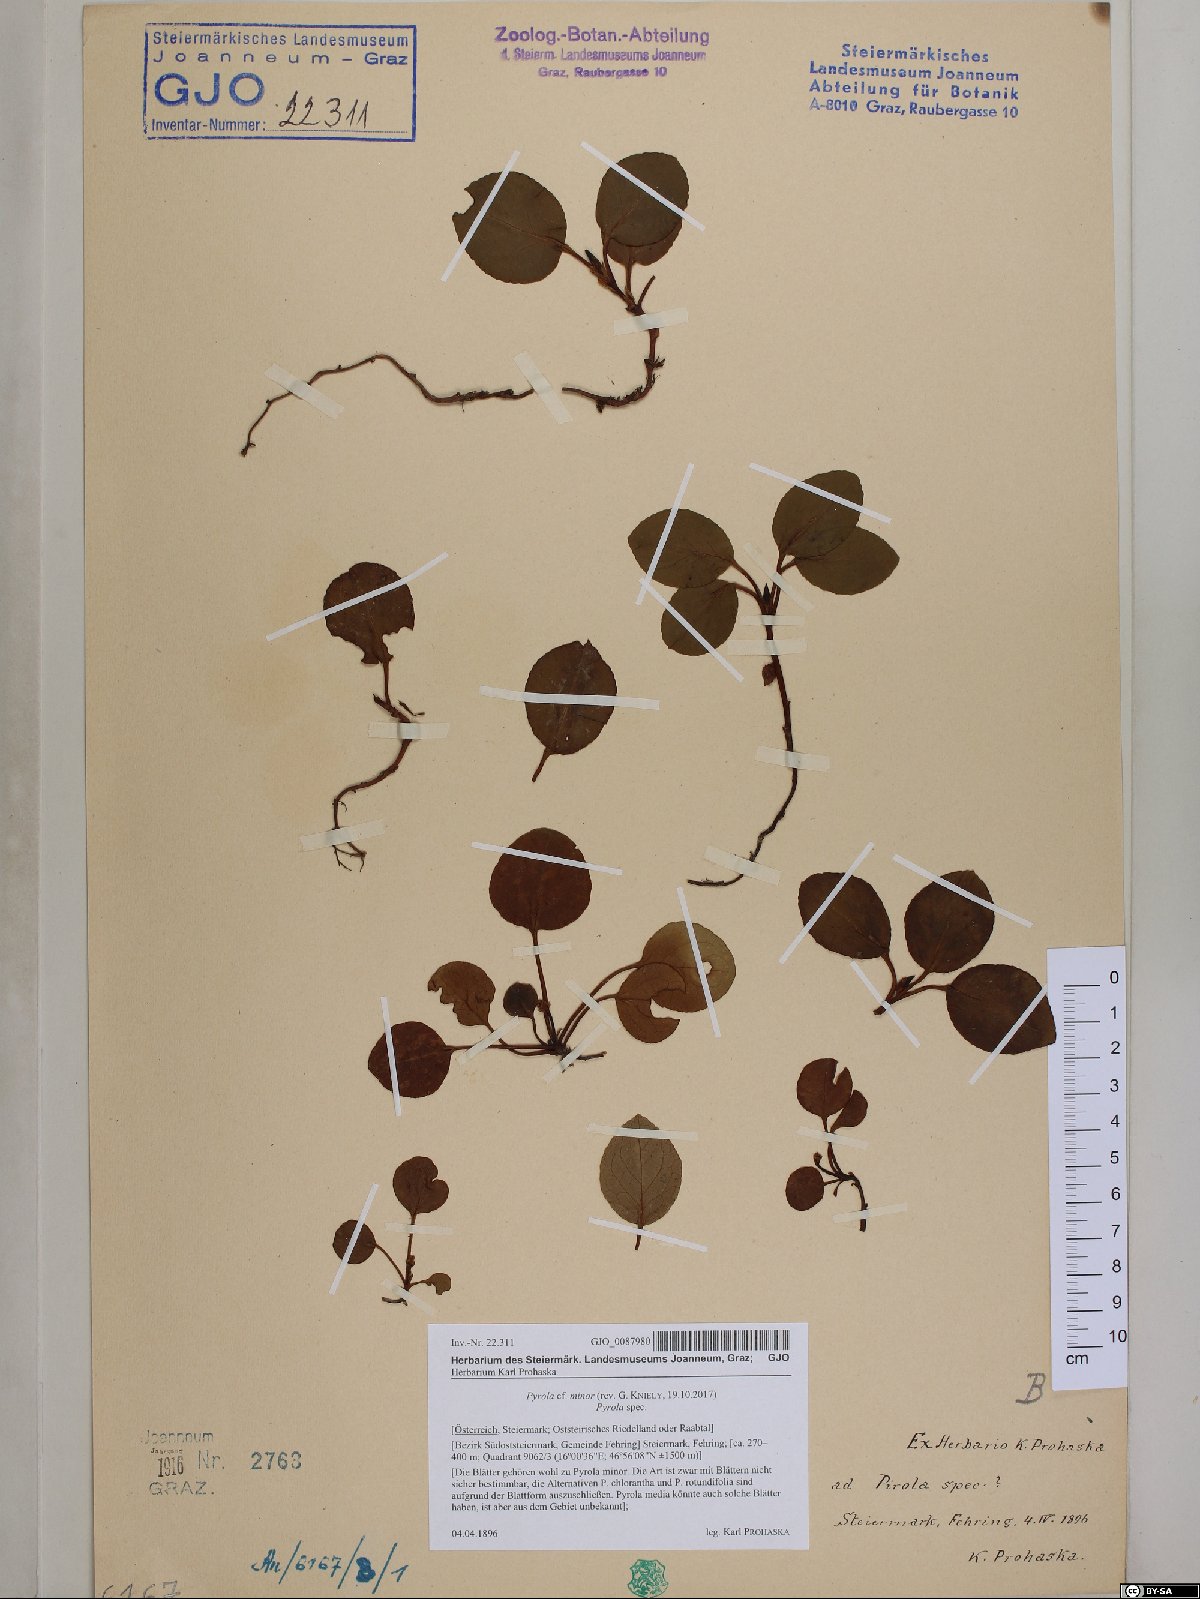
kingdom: Plantae
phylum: Tracheophyta
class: Magnoliopsida
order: Ericales
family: Ericaceae
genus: Pyrola
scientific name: Pyrola minor
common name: Common wintergreen
